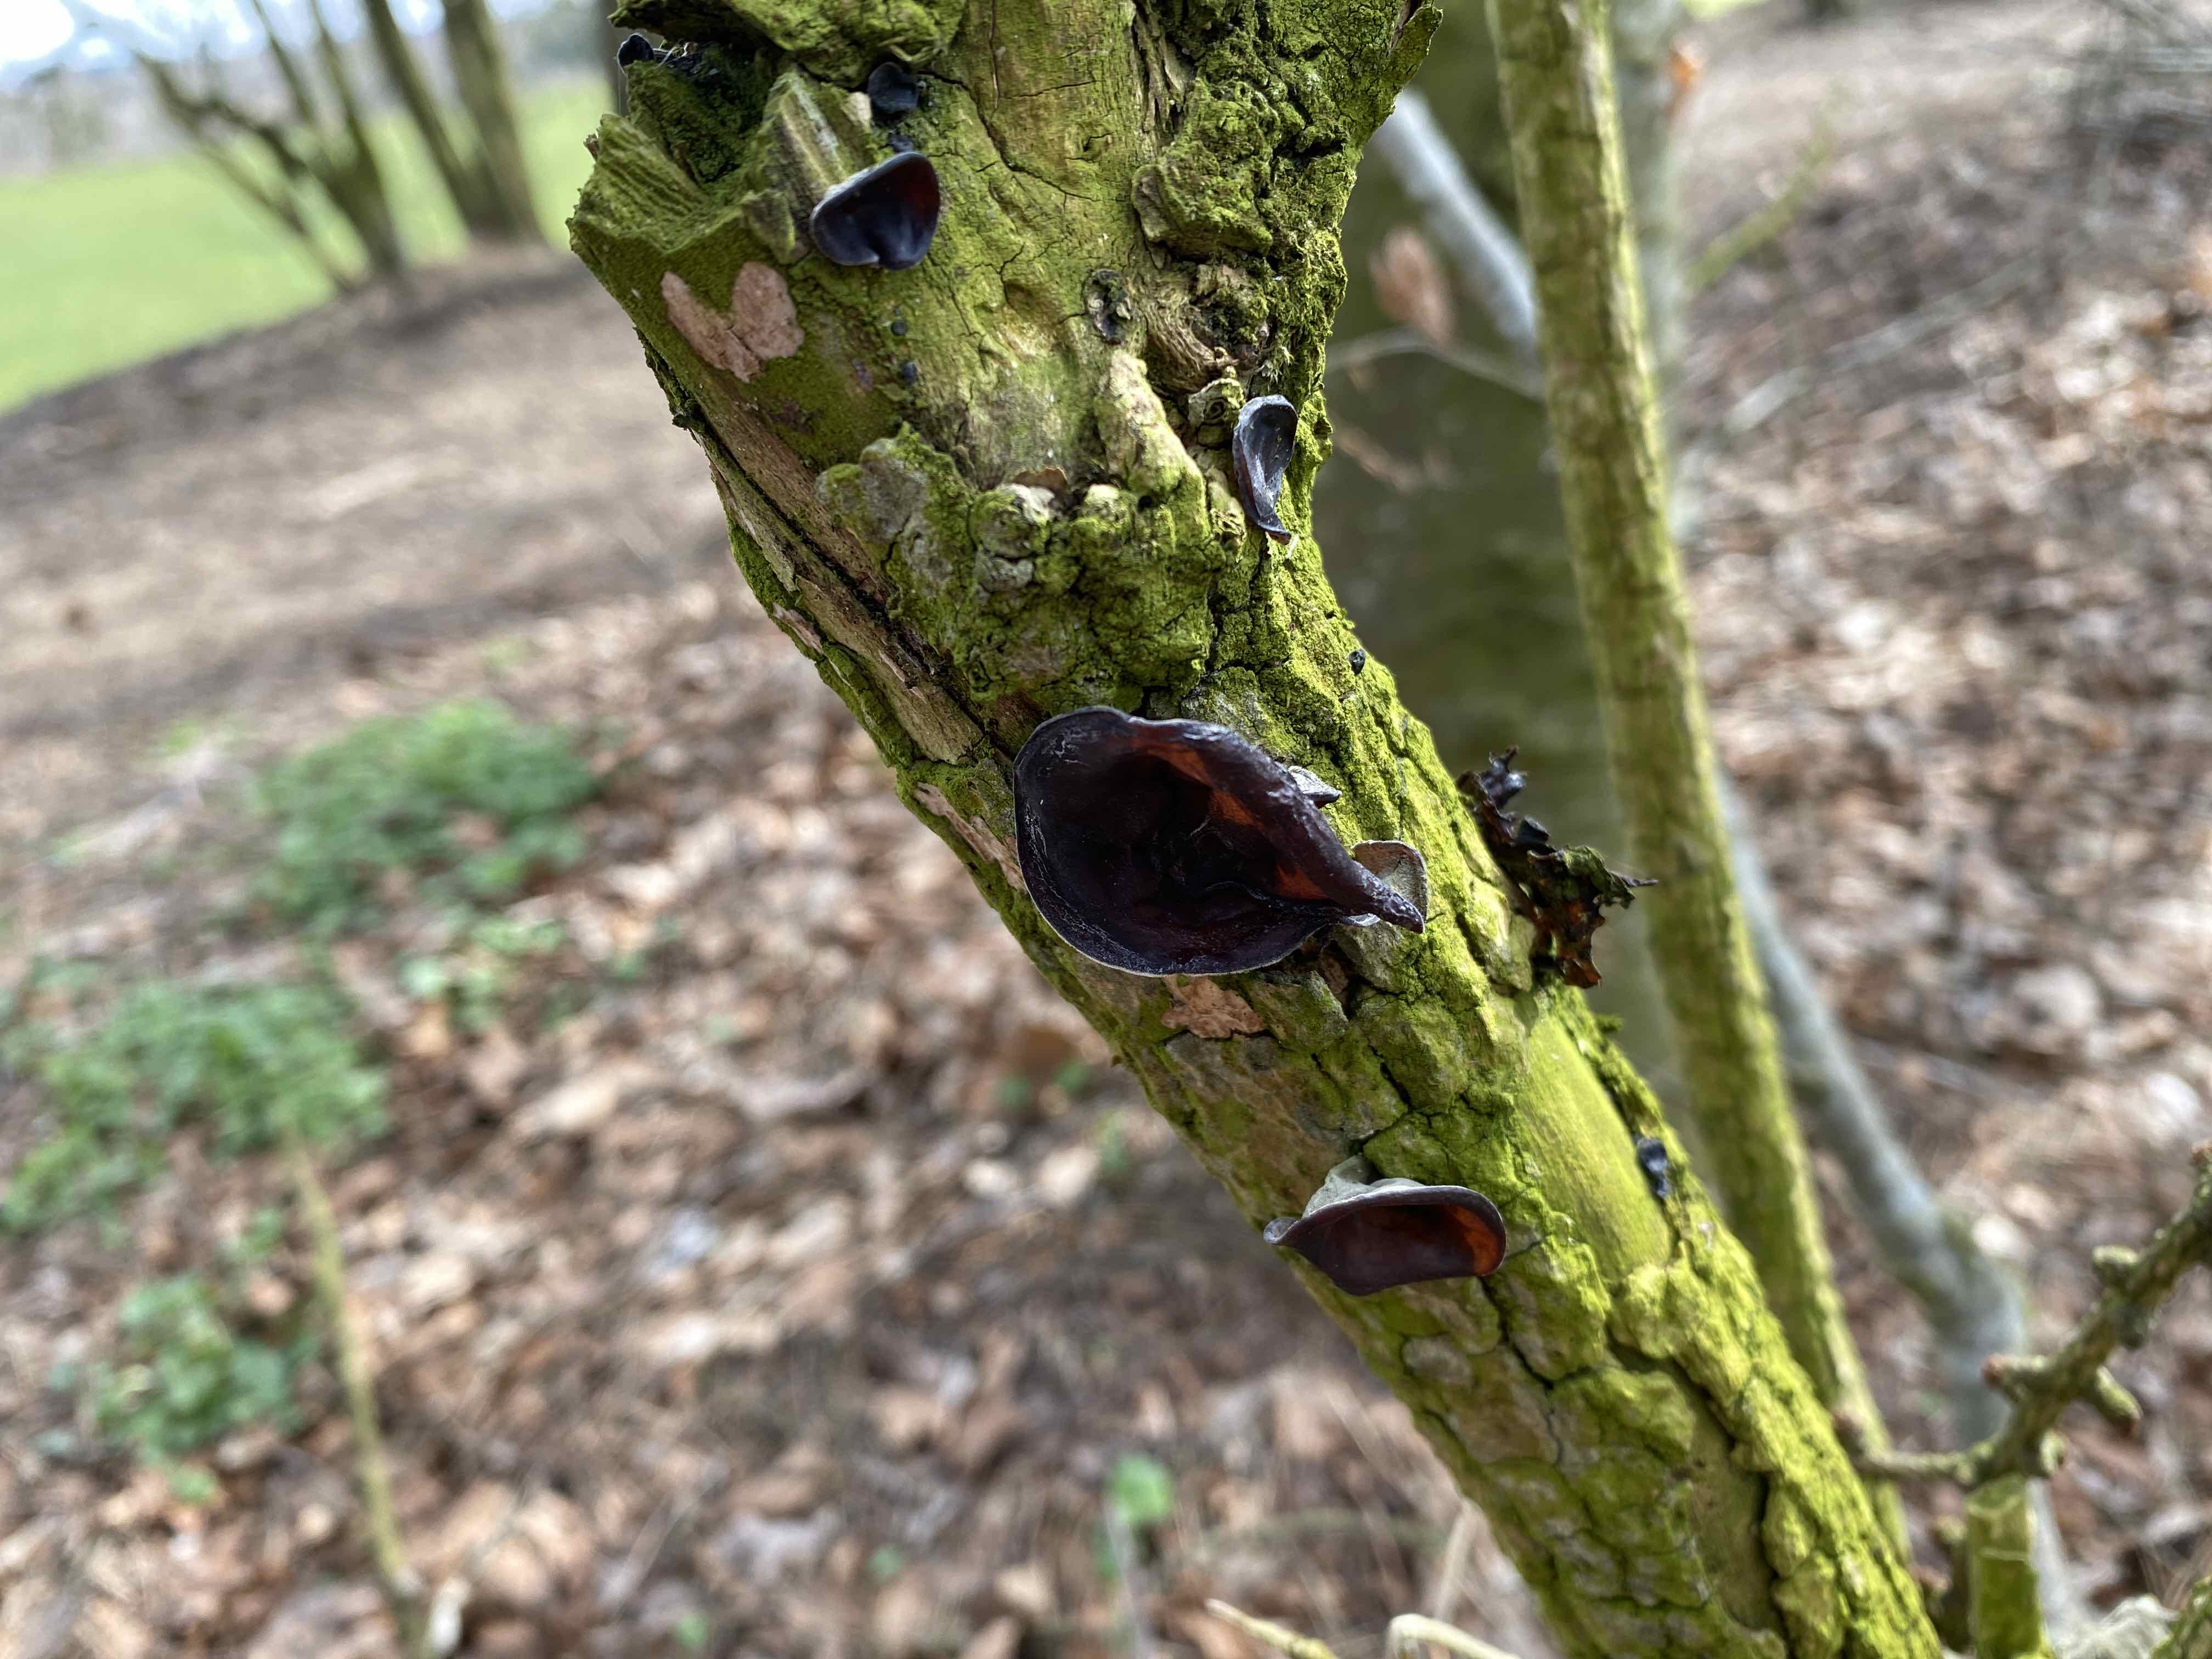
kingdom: Fungi
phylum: Basidiomycota
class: Agaricomycetes
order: Auriculariales
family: Auriculariaceae
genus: Auricularia
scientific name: Auricularia auricula-judae
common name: almindelig judasøre
